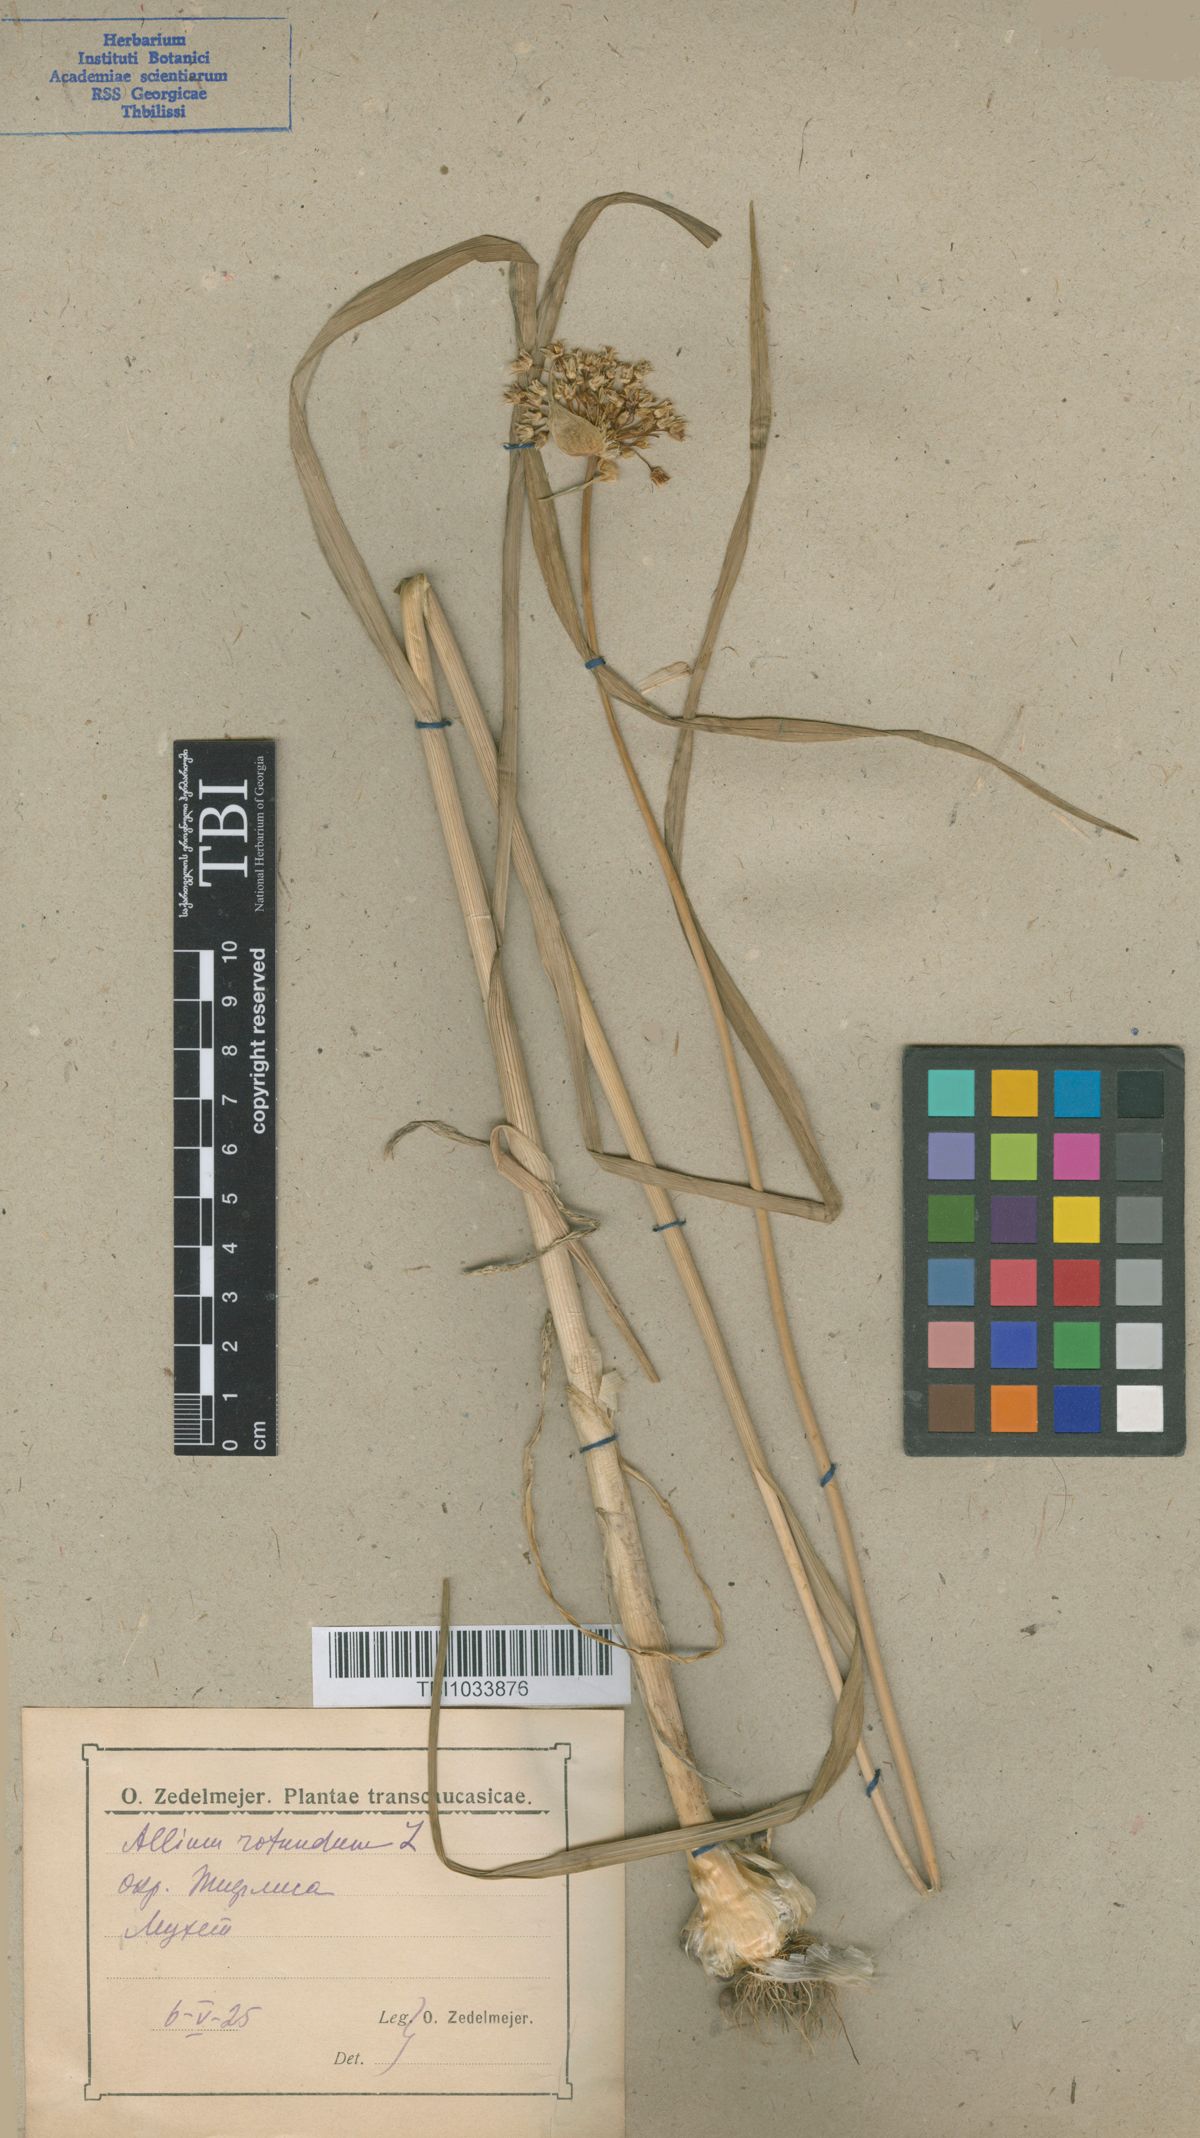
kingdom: Plantae
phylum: Tracheophyta
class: Liliopsida
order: Asparagales
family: Amaryllidaceae
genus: Allium
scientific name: Allium rotundum
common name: Sand leek
